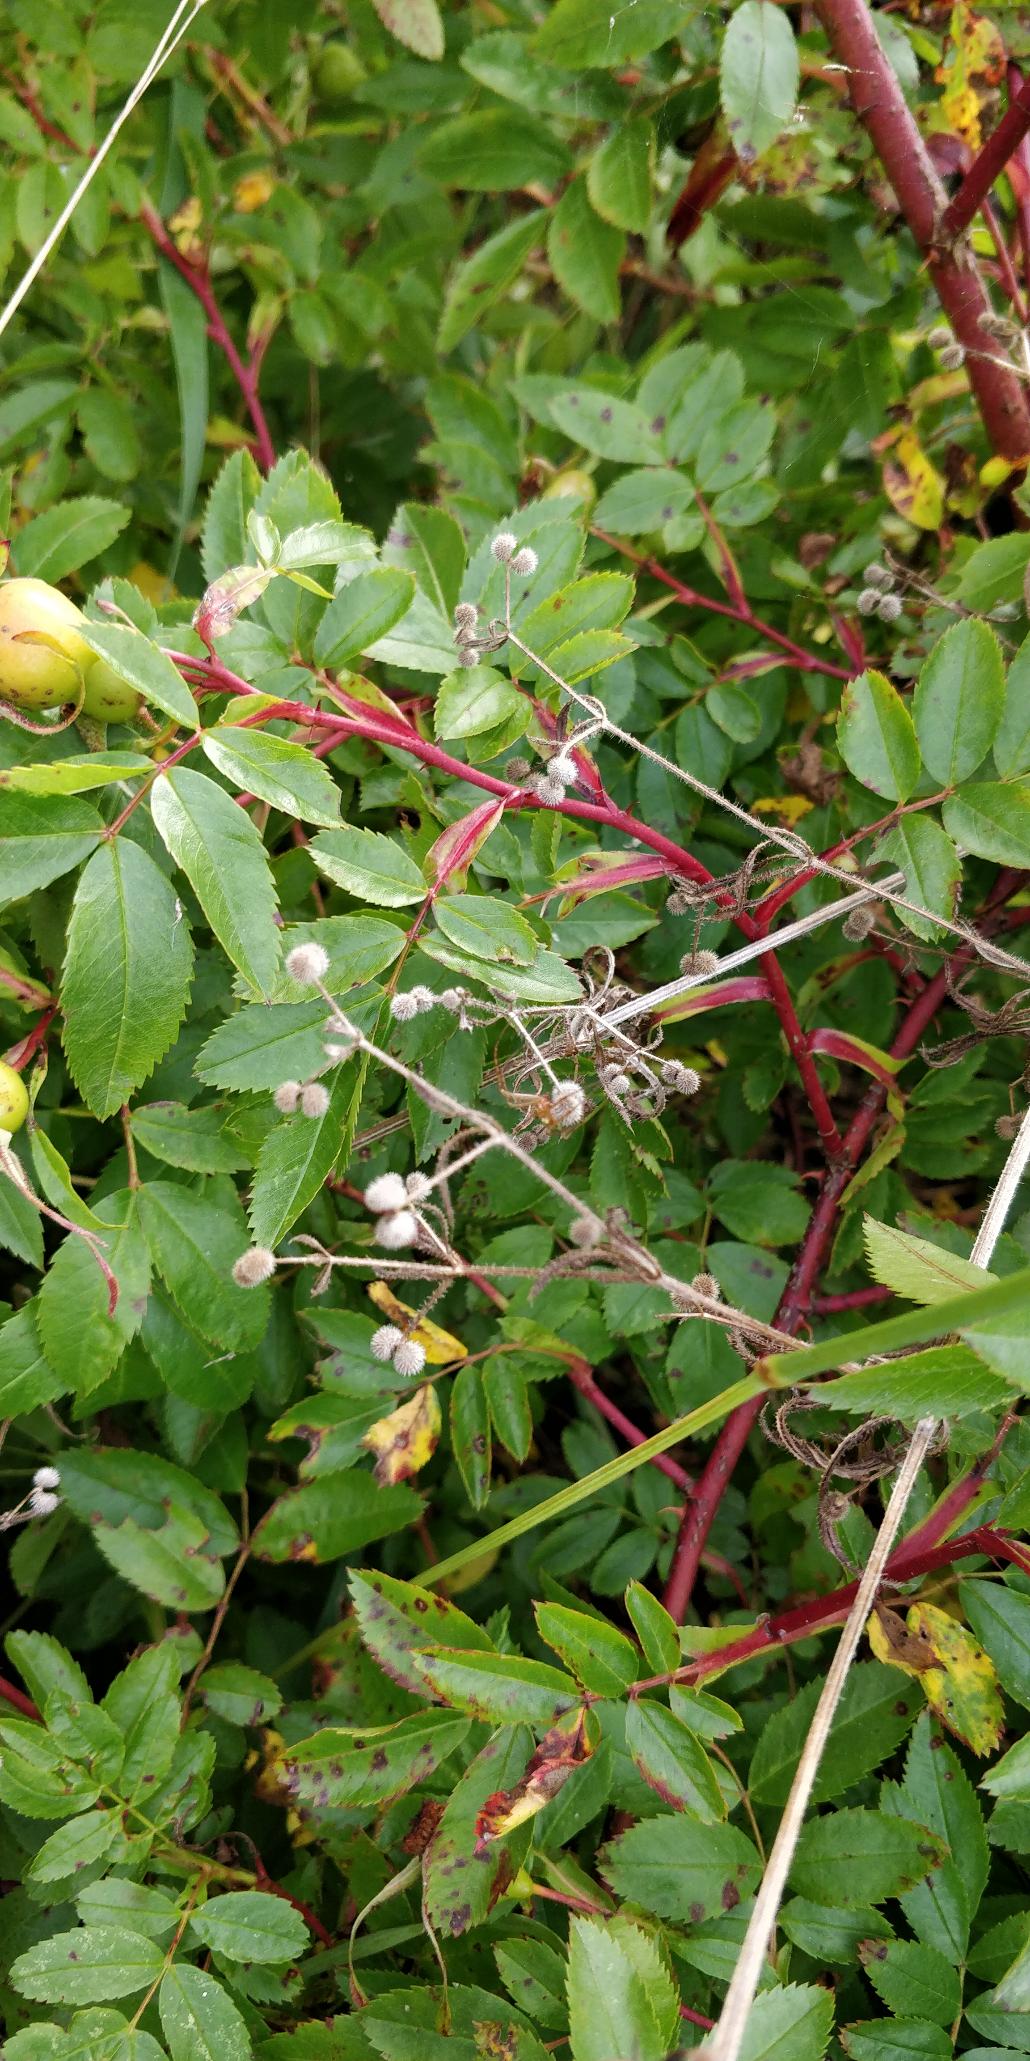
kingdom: Plantae
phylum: Tracheophyta
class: Magnoliopsida
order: Gentianales
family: Rubiaceae
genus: Galium
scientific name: Galium aparine
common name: Burre-snerre
